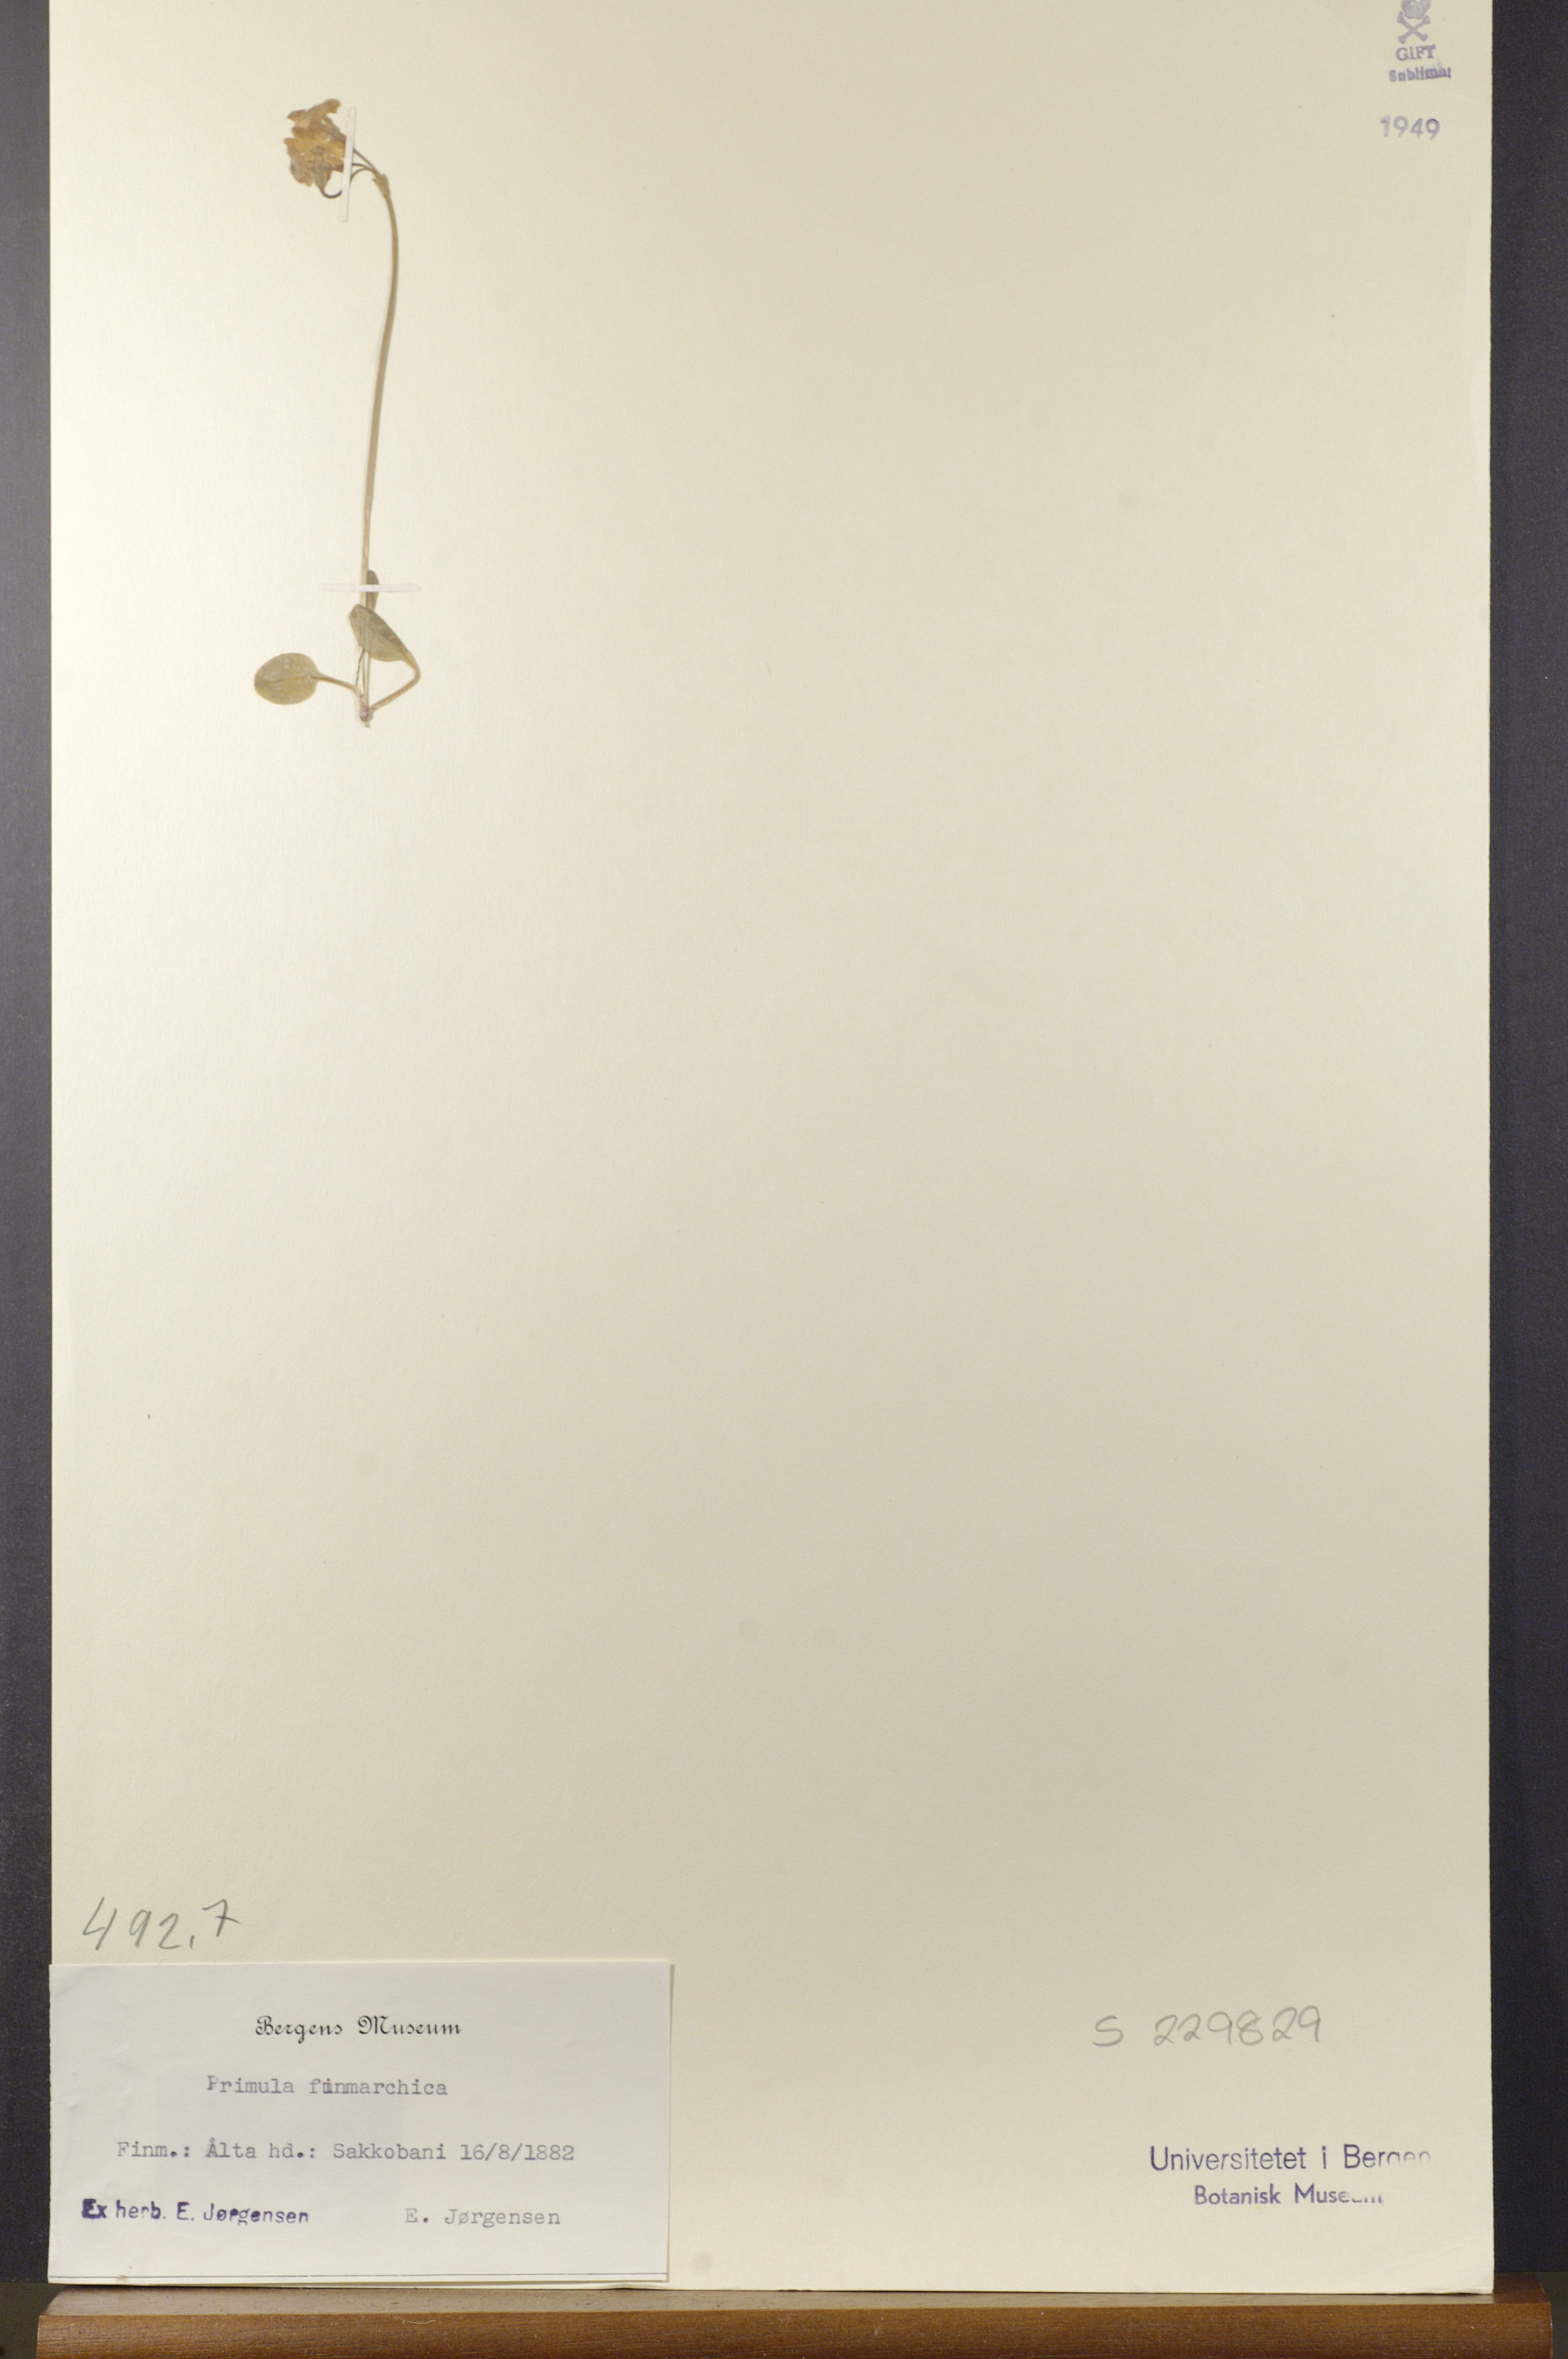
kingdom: Plantae
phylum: Tracheophyta
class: Magnoliopsida
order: Ericales
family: Primulaceae
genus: Primula
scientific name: Primula nutans
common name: Siberian primrose
